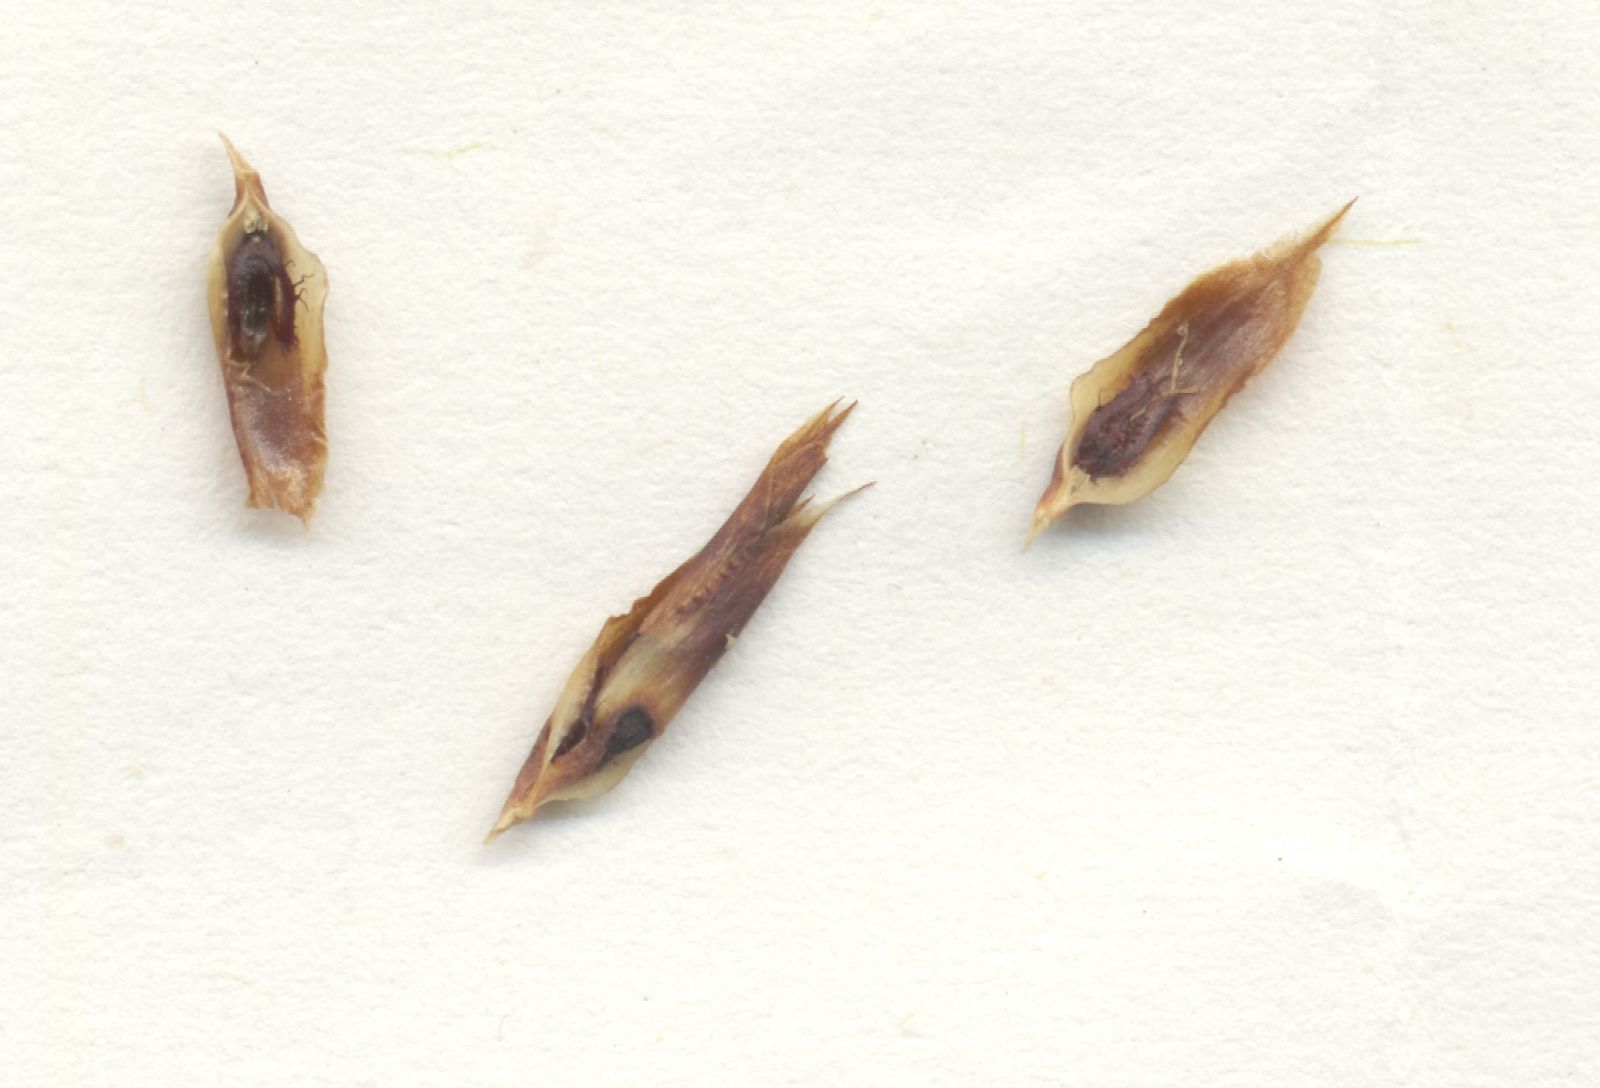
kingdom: Plantae
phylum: Tracheophyta
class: Liliopsida
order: Poales
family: Restionaceae
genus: Staberoha
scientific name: Staberoha ornata
